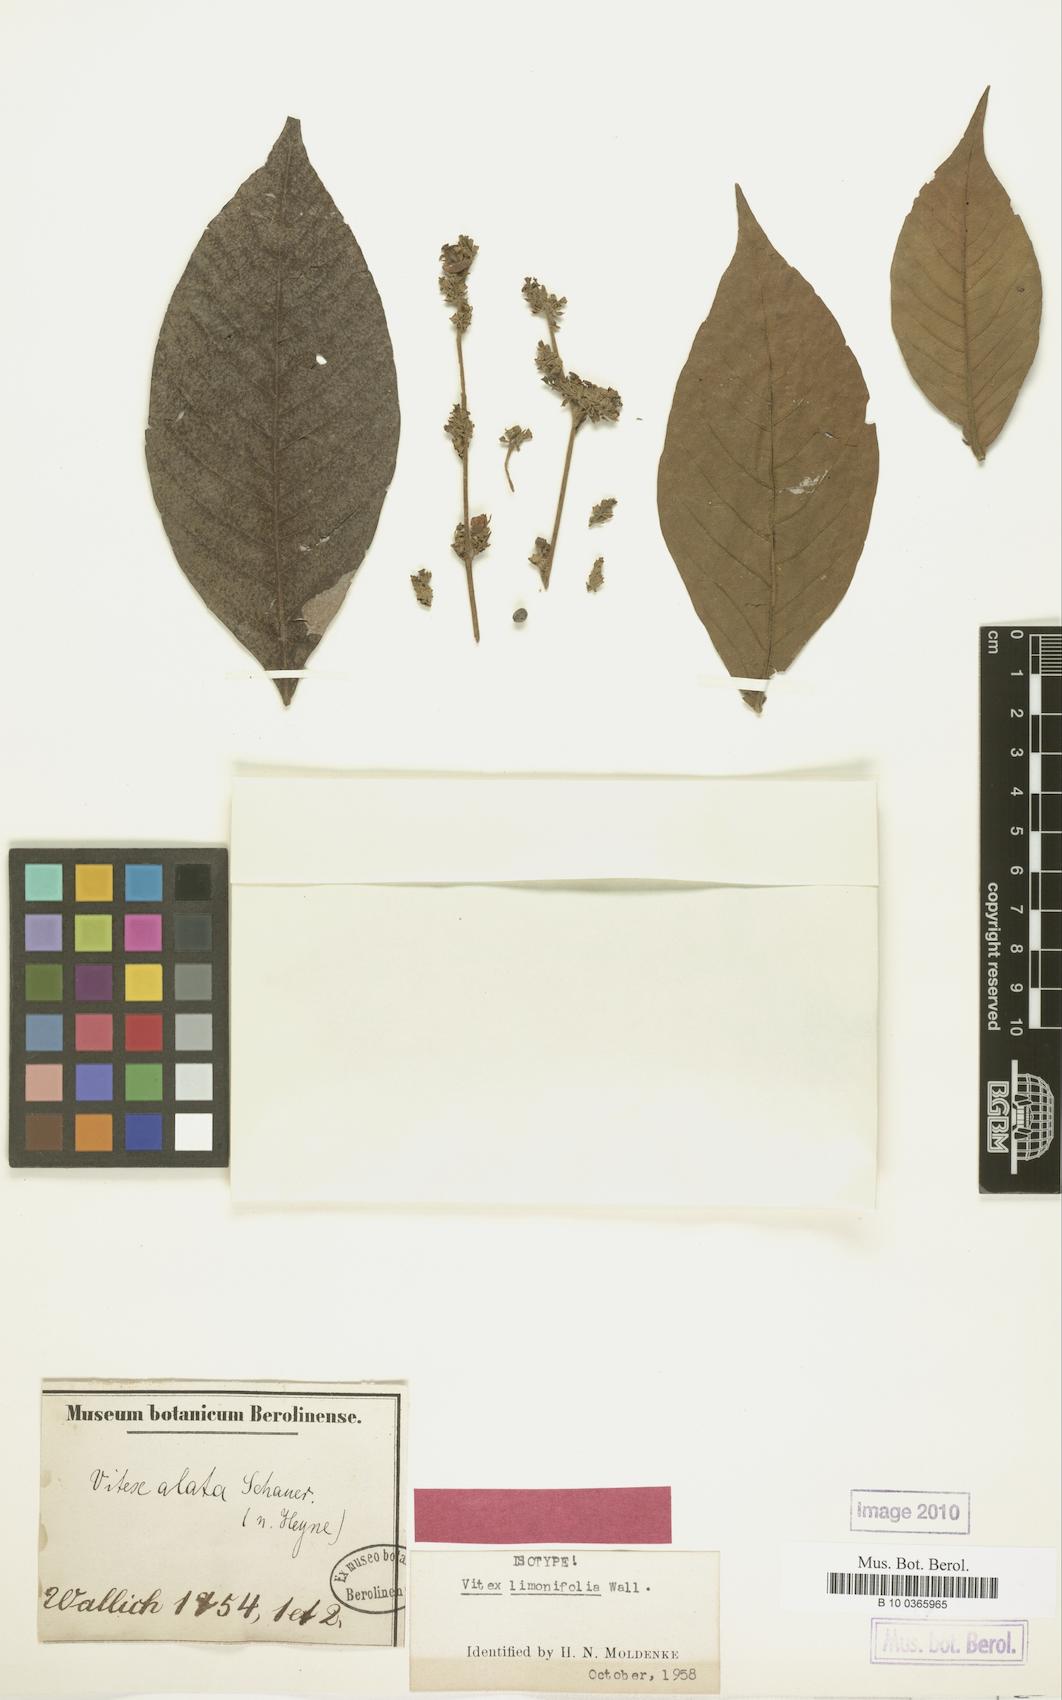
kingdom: Plantae
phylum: Tracheophyta
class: Magnoliopsida
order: Lamiales
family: Lamiaceae
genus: Vitex
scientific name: Vitex limonifolia
